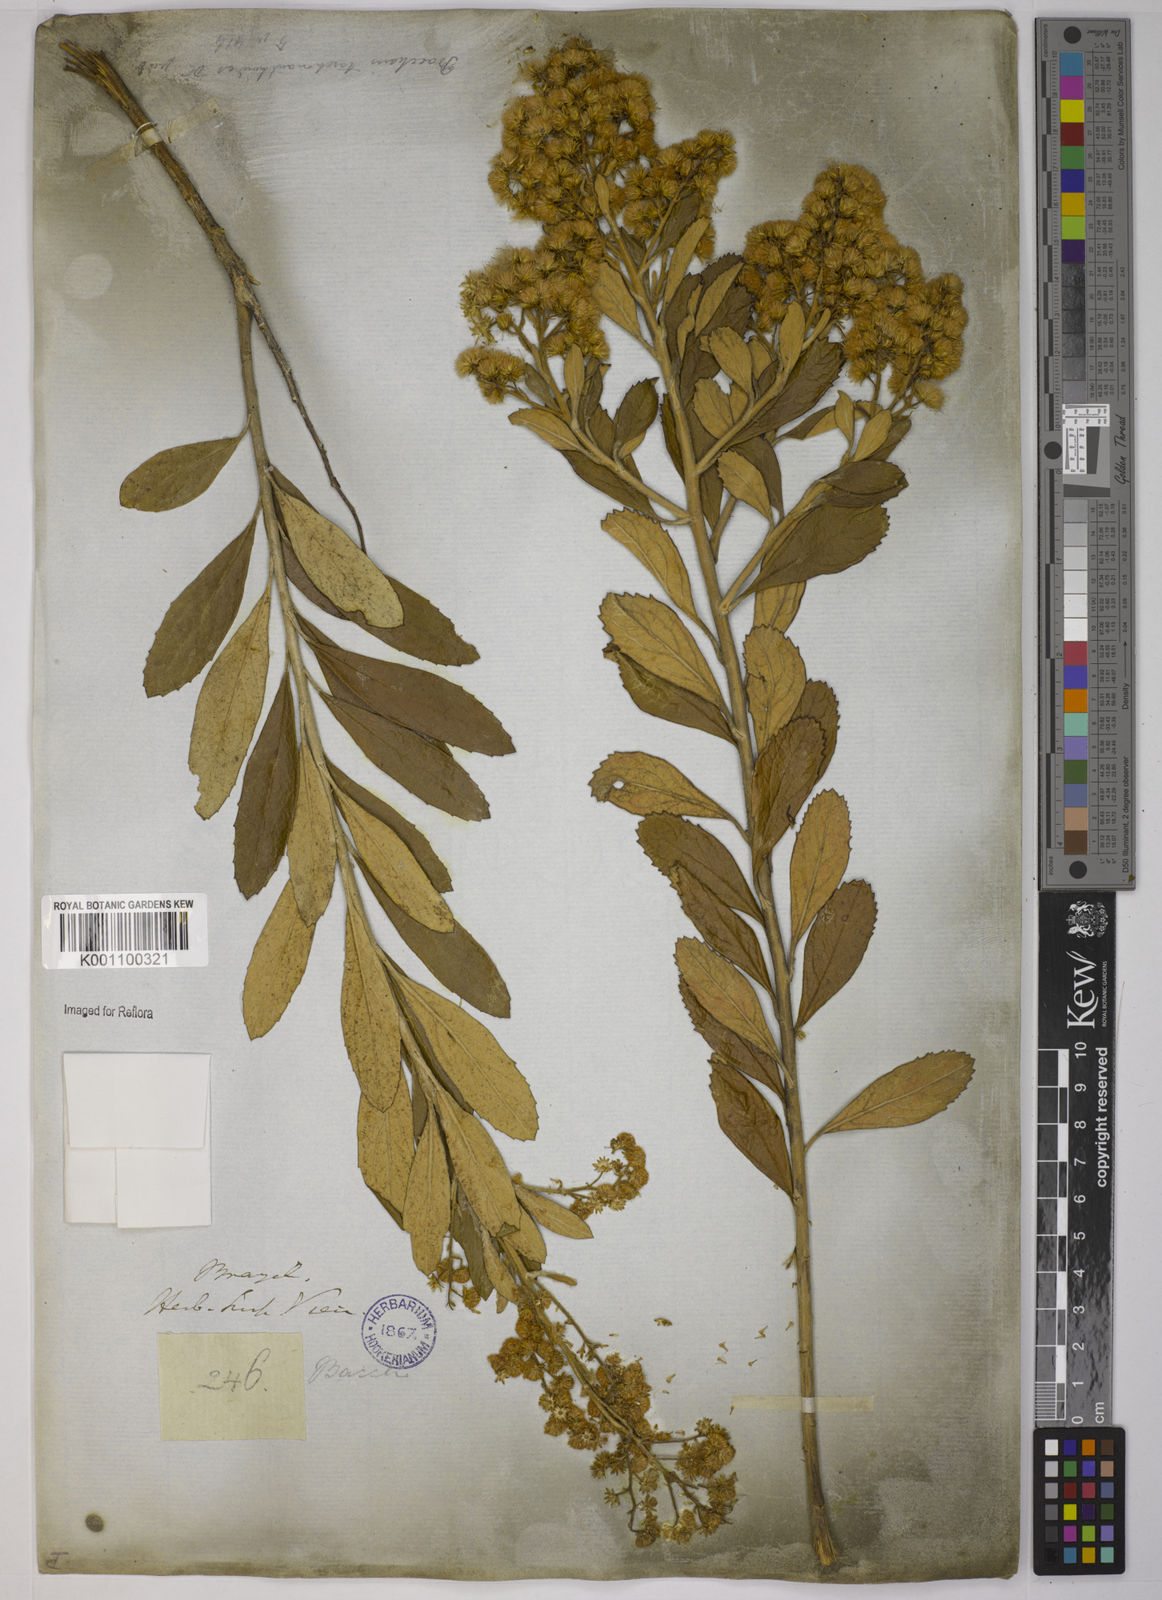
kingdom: Plantae
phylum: Tracheophyta
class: Magnoliopsida
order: Asterales
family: Asteraceae
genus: Baccharis
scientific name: Baccharis
